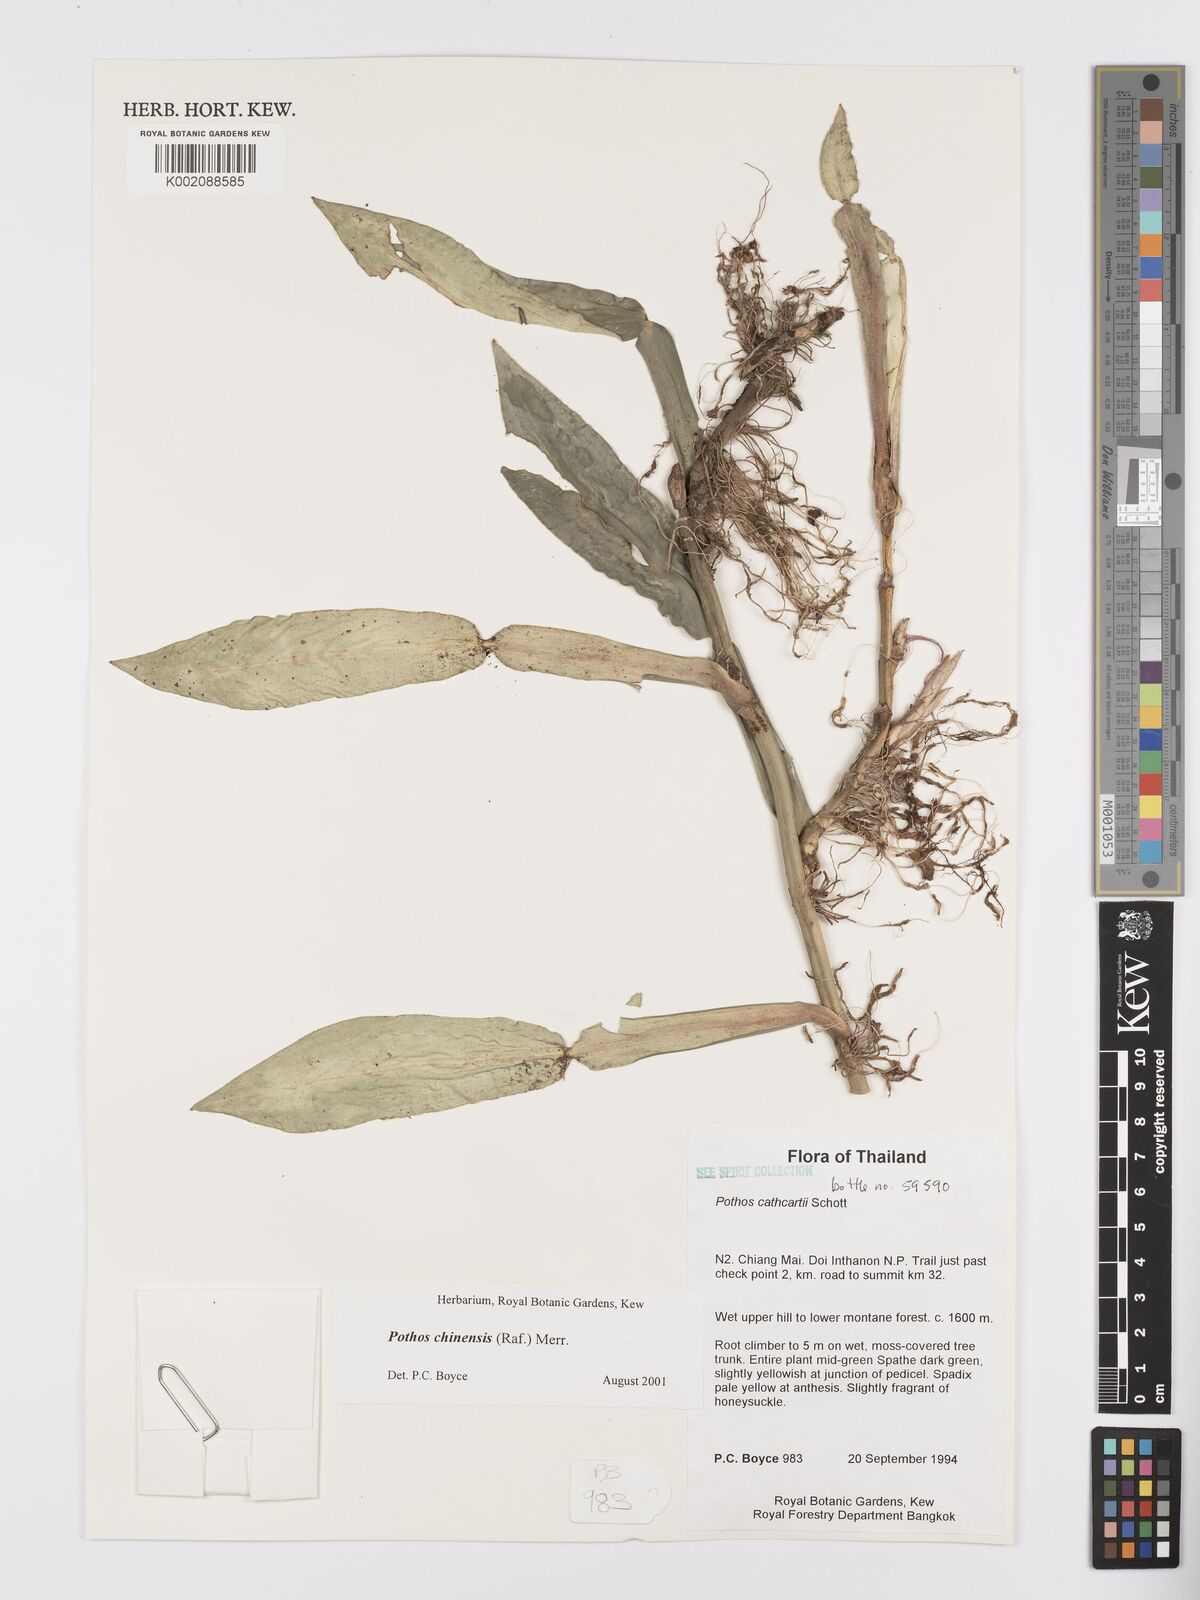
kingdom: Plantae
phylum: Tracheophyta
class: Liliopsida
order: Alismatales
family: Araceae
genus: Pothos
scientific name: Pothos chinensis
